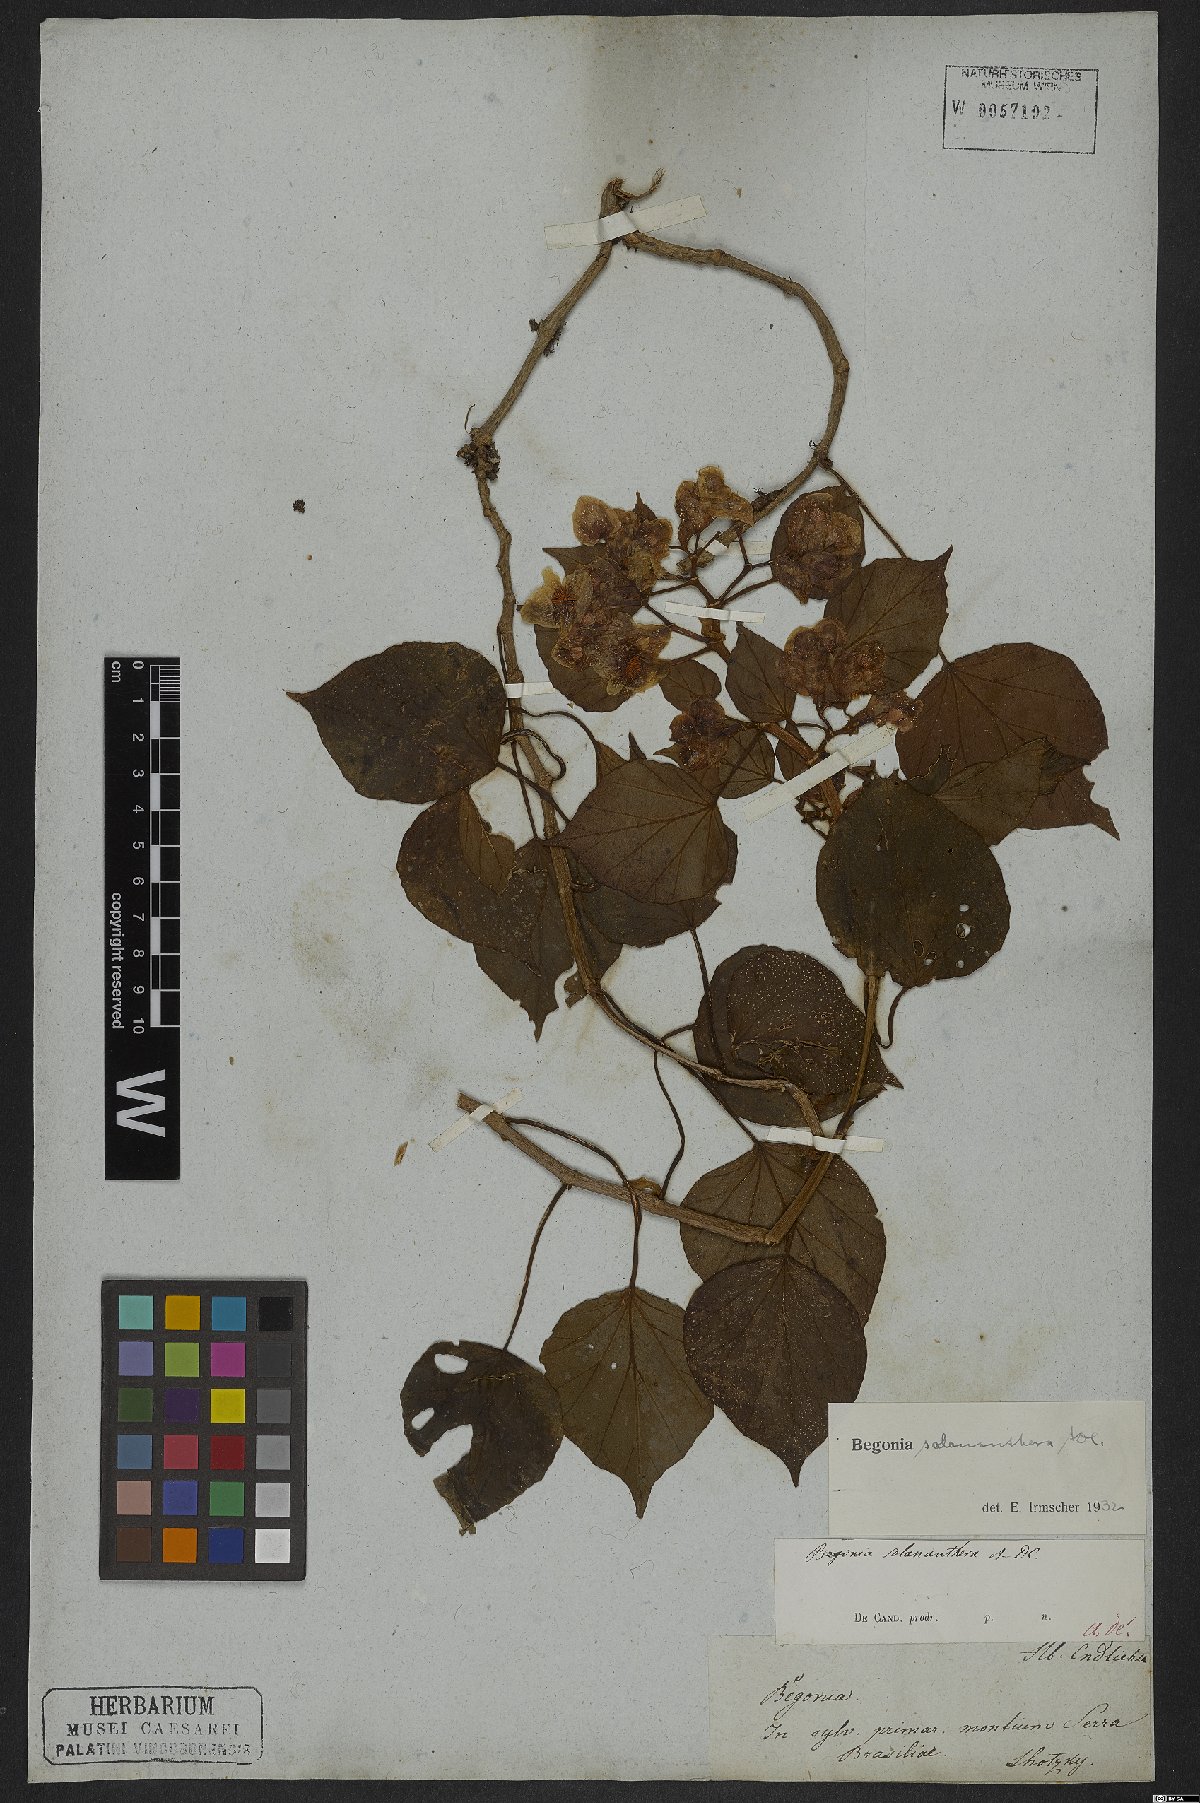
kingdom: Plantae
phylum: Tracheophyta
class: Magnoliopsida
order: Cucurbitales
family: Begoniaceae
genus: Begonia
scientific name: Begonia solananthera
